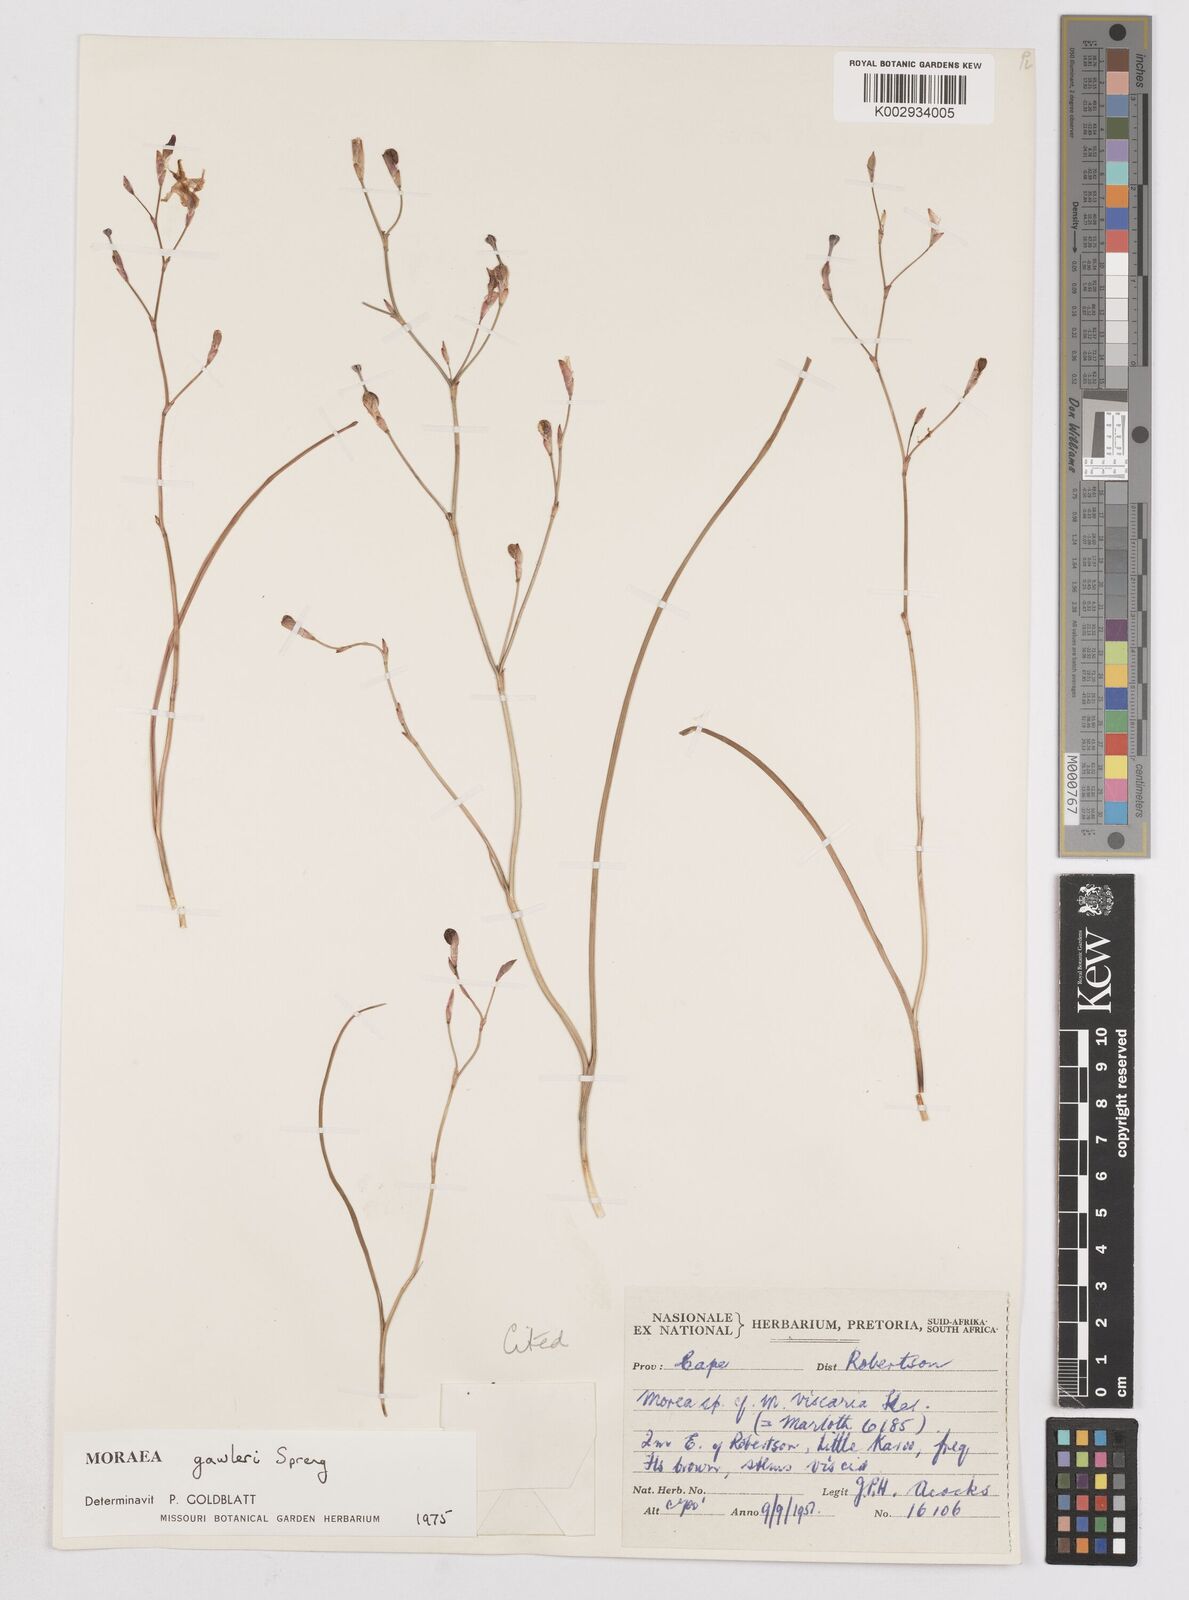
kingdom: Plantae
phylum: Tracheophyta
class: Liliopsida
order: Asparagales
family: Iridaceae
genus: Moraea
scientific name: Moraea gawleri
